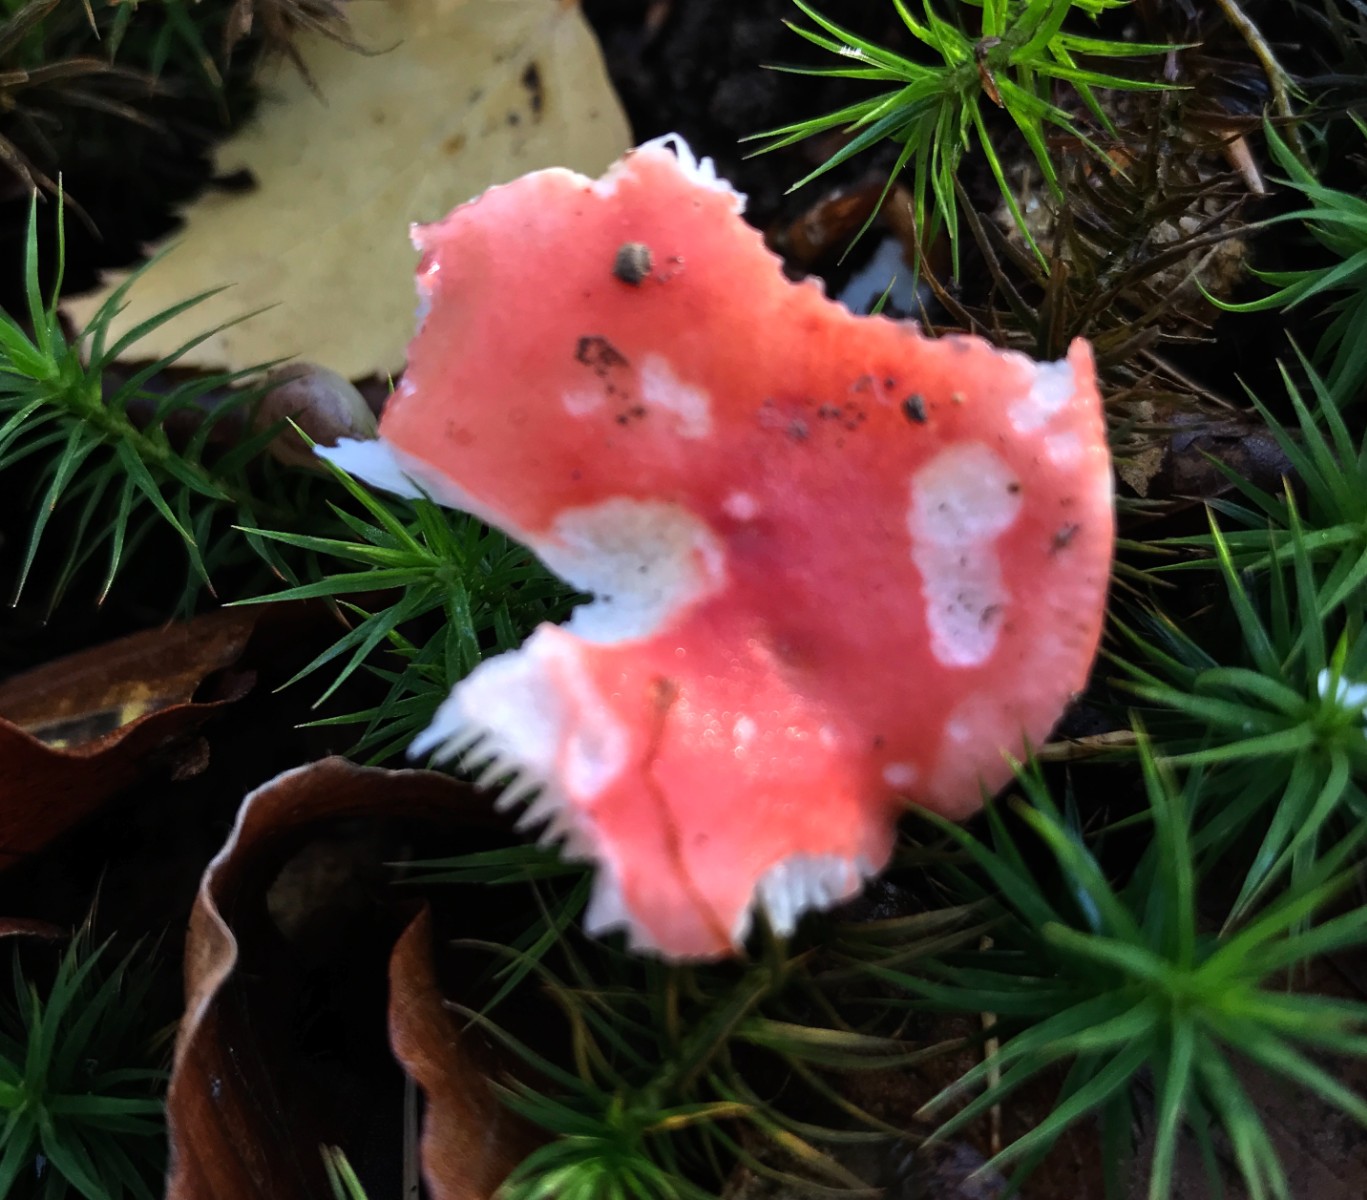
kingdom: Fungi
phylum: Basidiomycota
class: Agaricomycetes
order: Russulales
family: Russulaceae
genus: Russula
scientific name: Russula nobilis
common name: lille gift-skørhat
